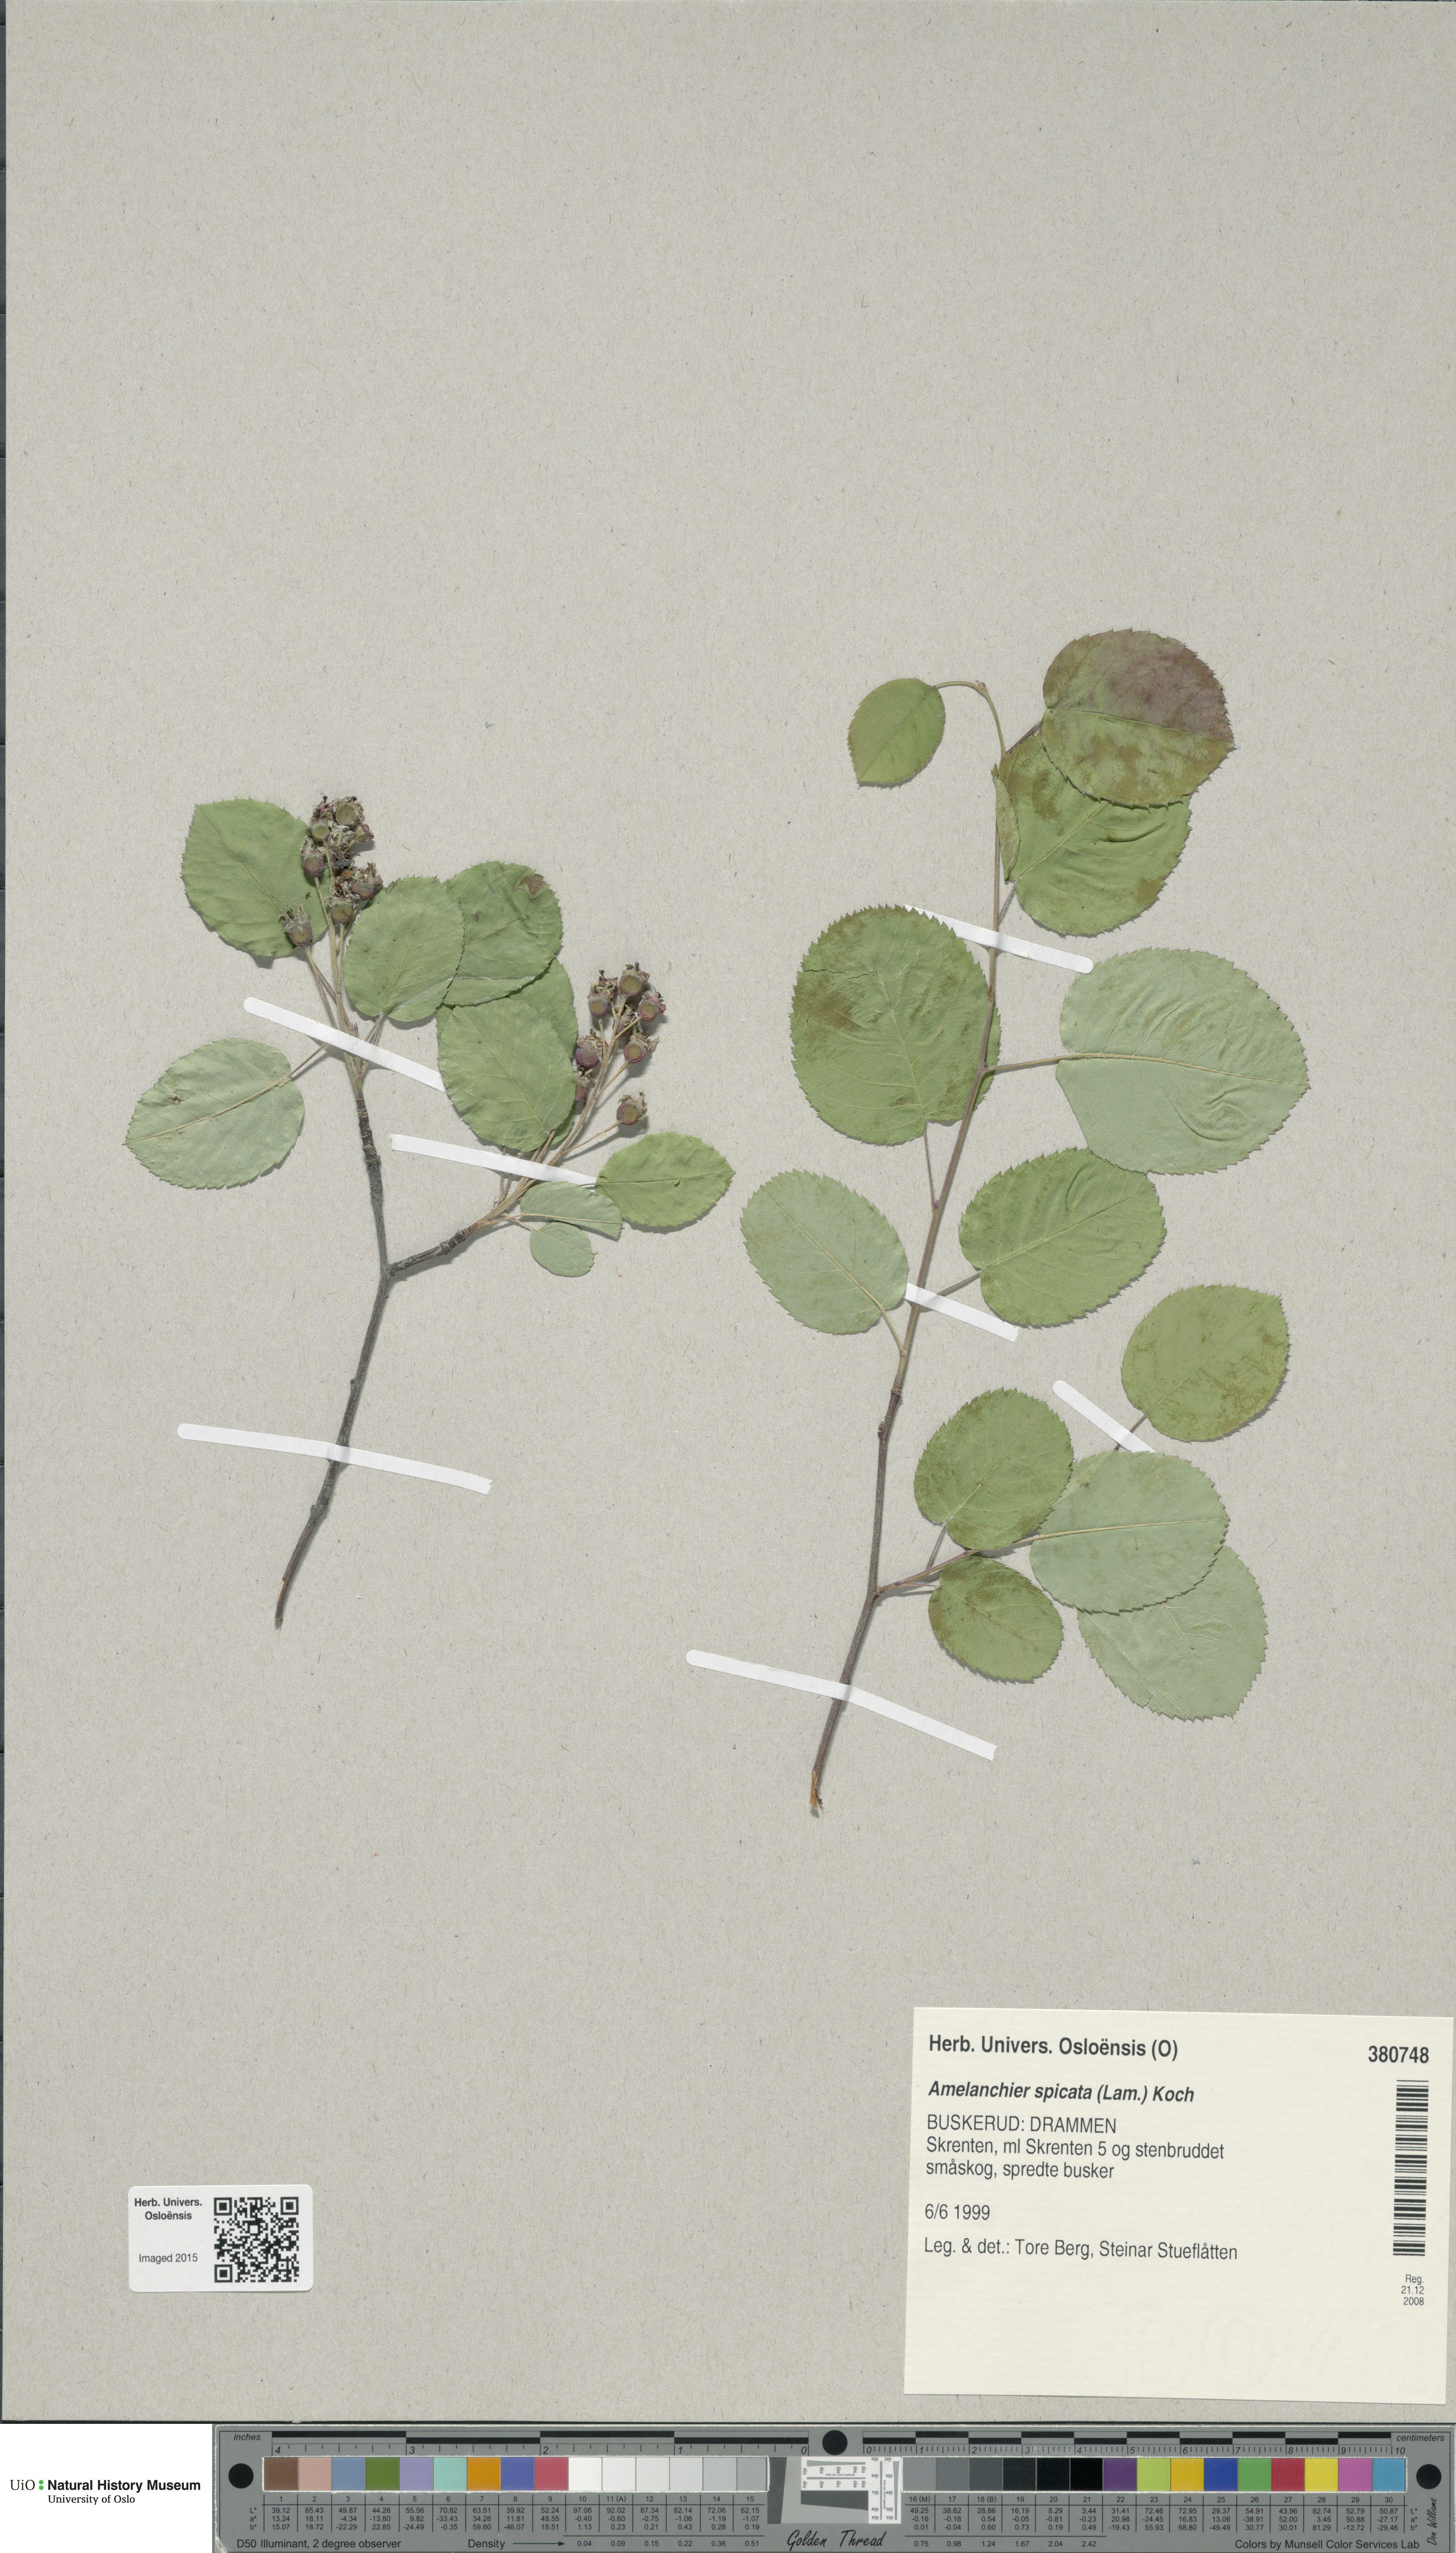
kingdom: Plantae
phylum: Tracheophyta
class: Magnoliopsida
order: Rosales
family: Rosaceae
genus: Amelanchier
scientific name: Amelanchier humilis
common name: Low juneberry
